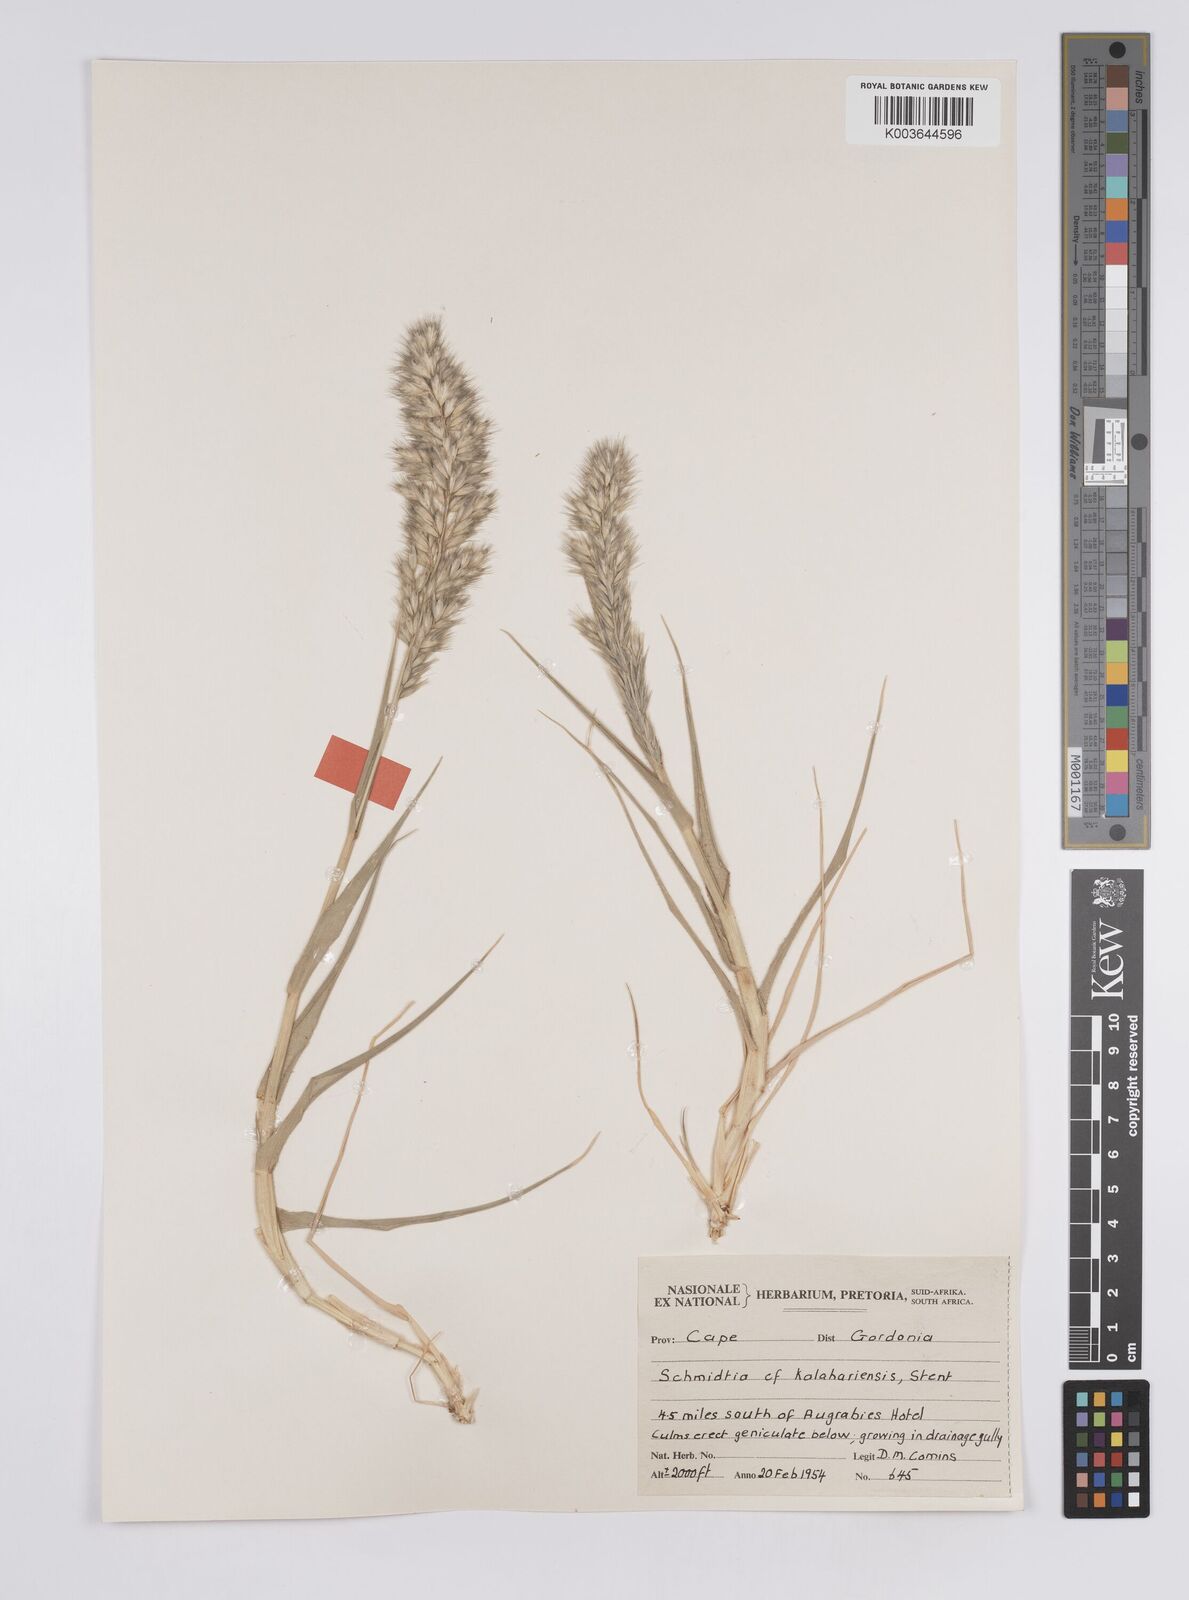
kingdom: Plantae
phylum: Tracheophyta
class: Liliopsida
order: Poales
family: Poaceae
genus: Schmidtia
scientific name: Schmidtia kalahariensis
